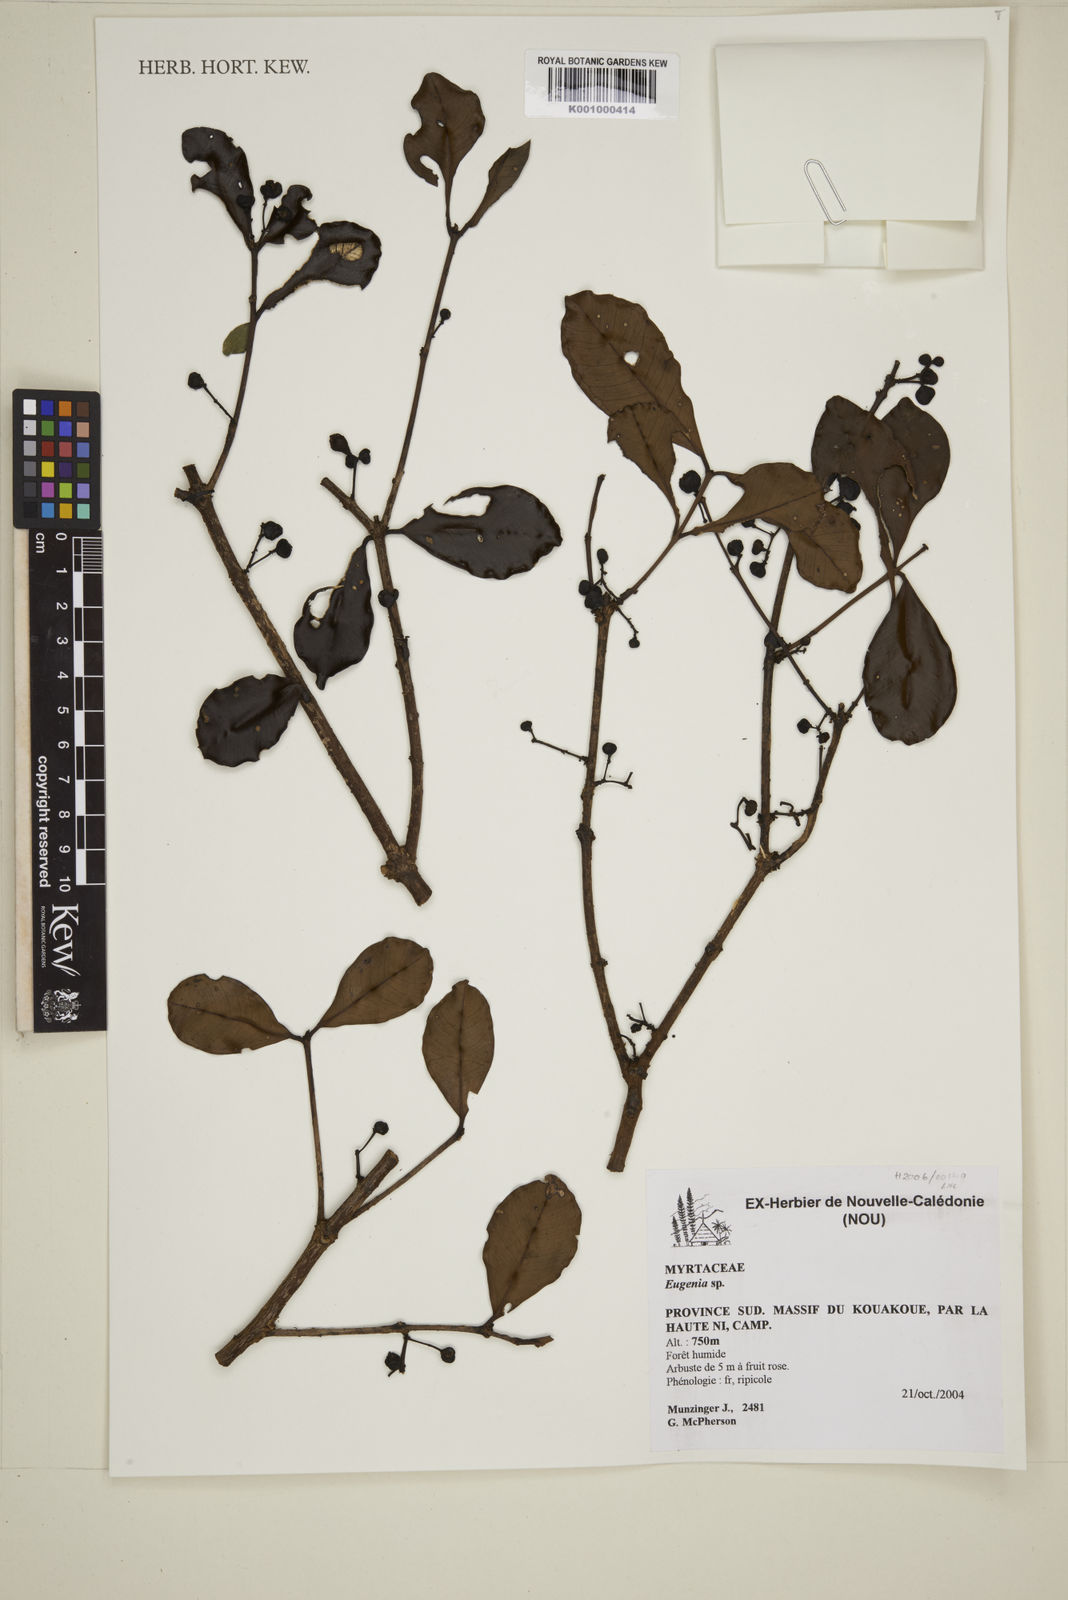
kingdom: Plantae
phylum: Tracheophyta
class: Magnoliopsida
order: Myrtales
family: Myrtaceae
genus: Eugenia
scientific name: Eugenia
